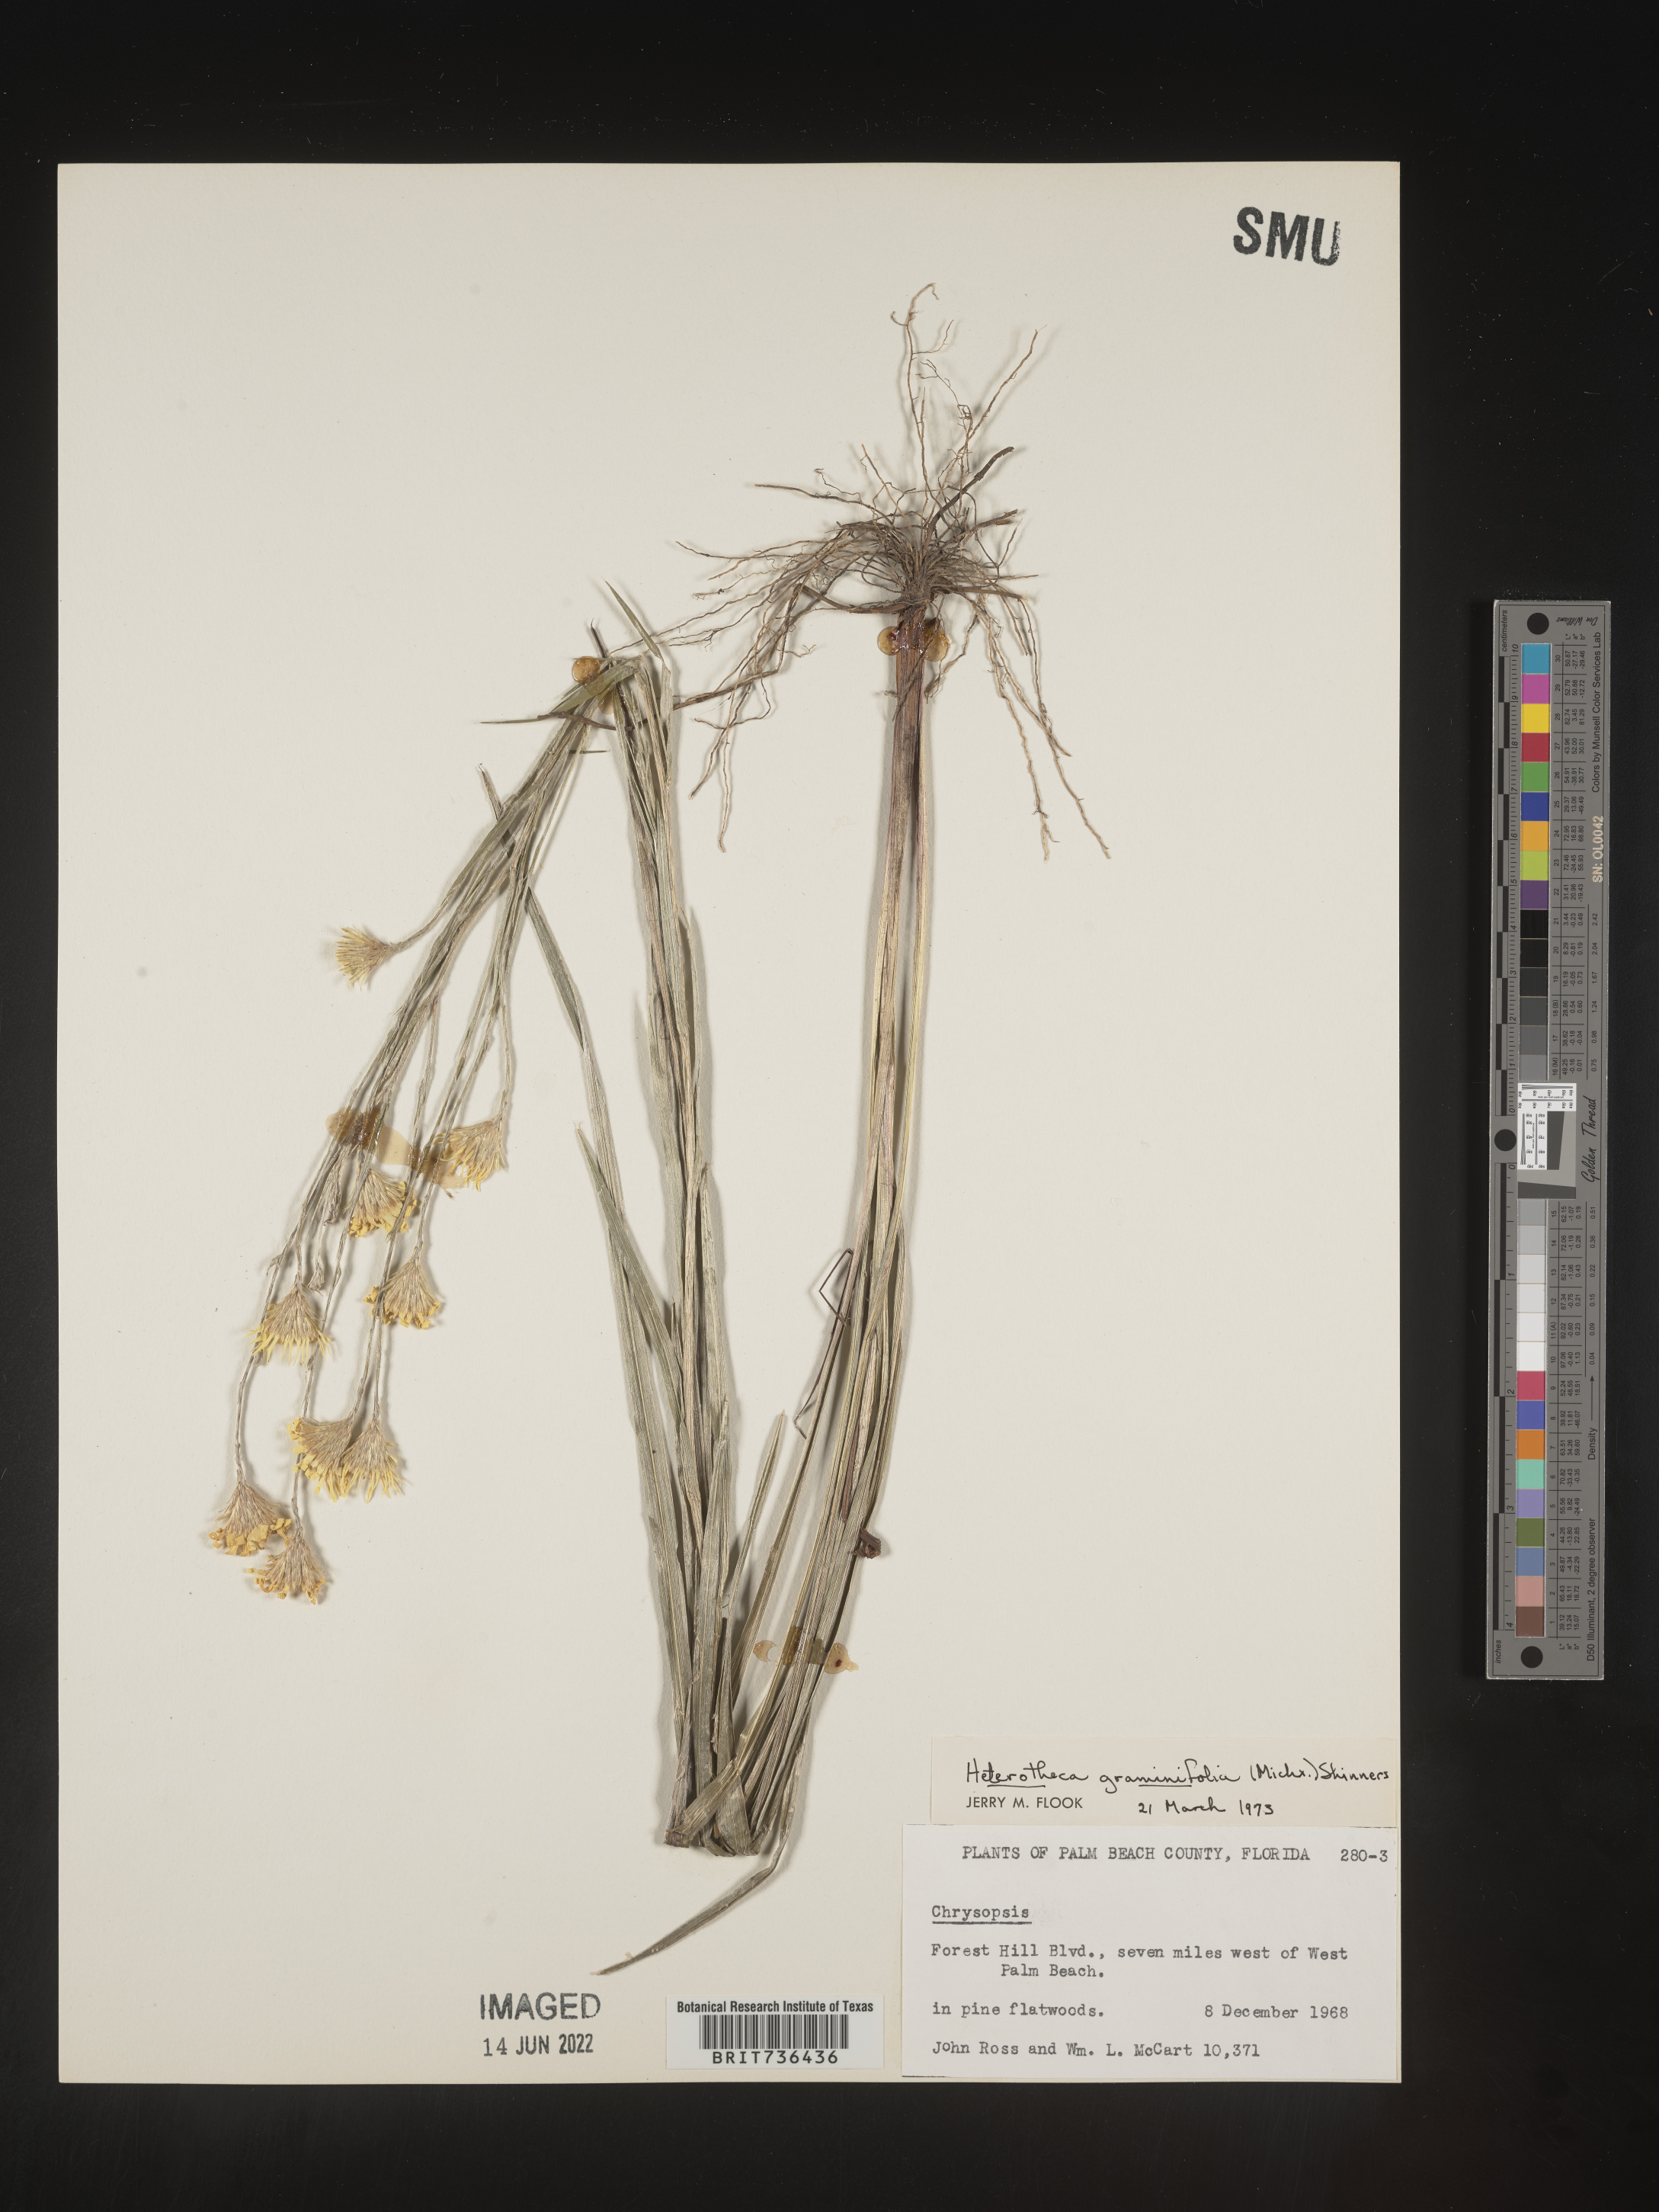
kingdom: Plantae
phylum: Tracheophyta
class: Magnoliopsida
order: Asterales
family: Asteraceae
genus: Pityopsis
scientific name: Pityopsis tracyi
